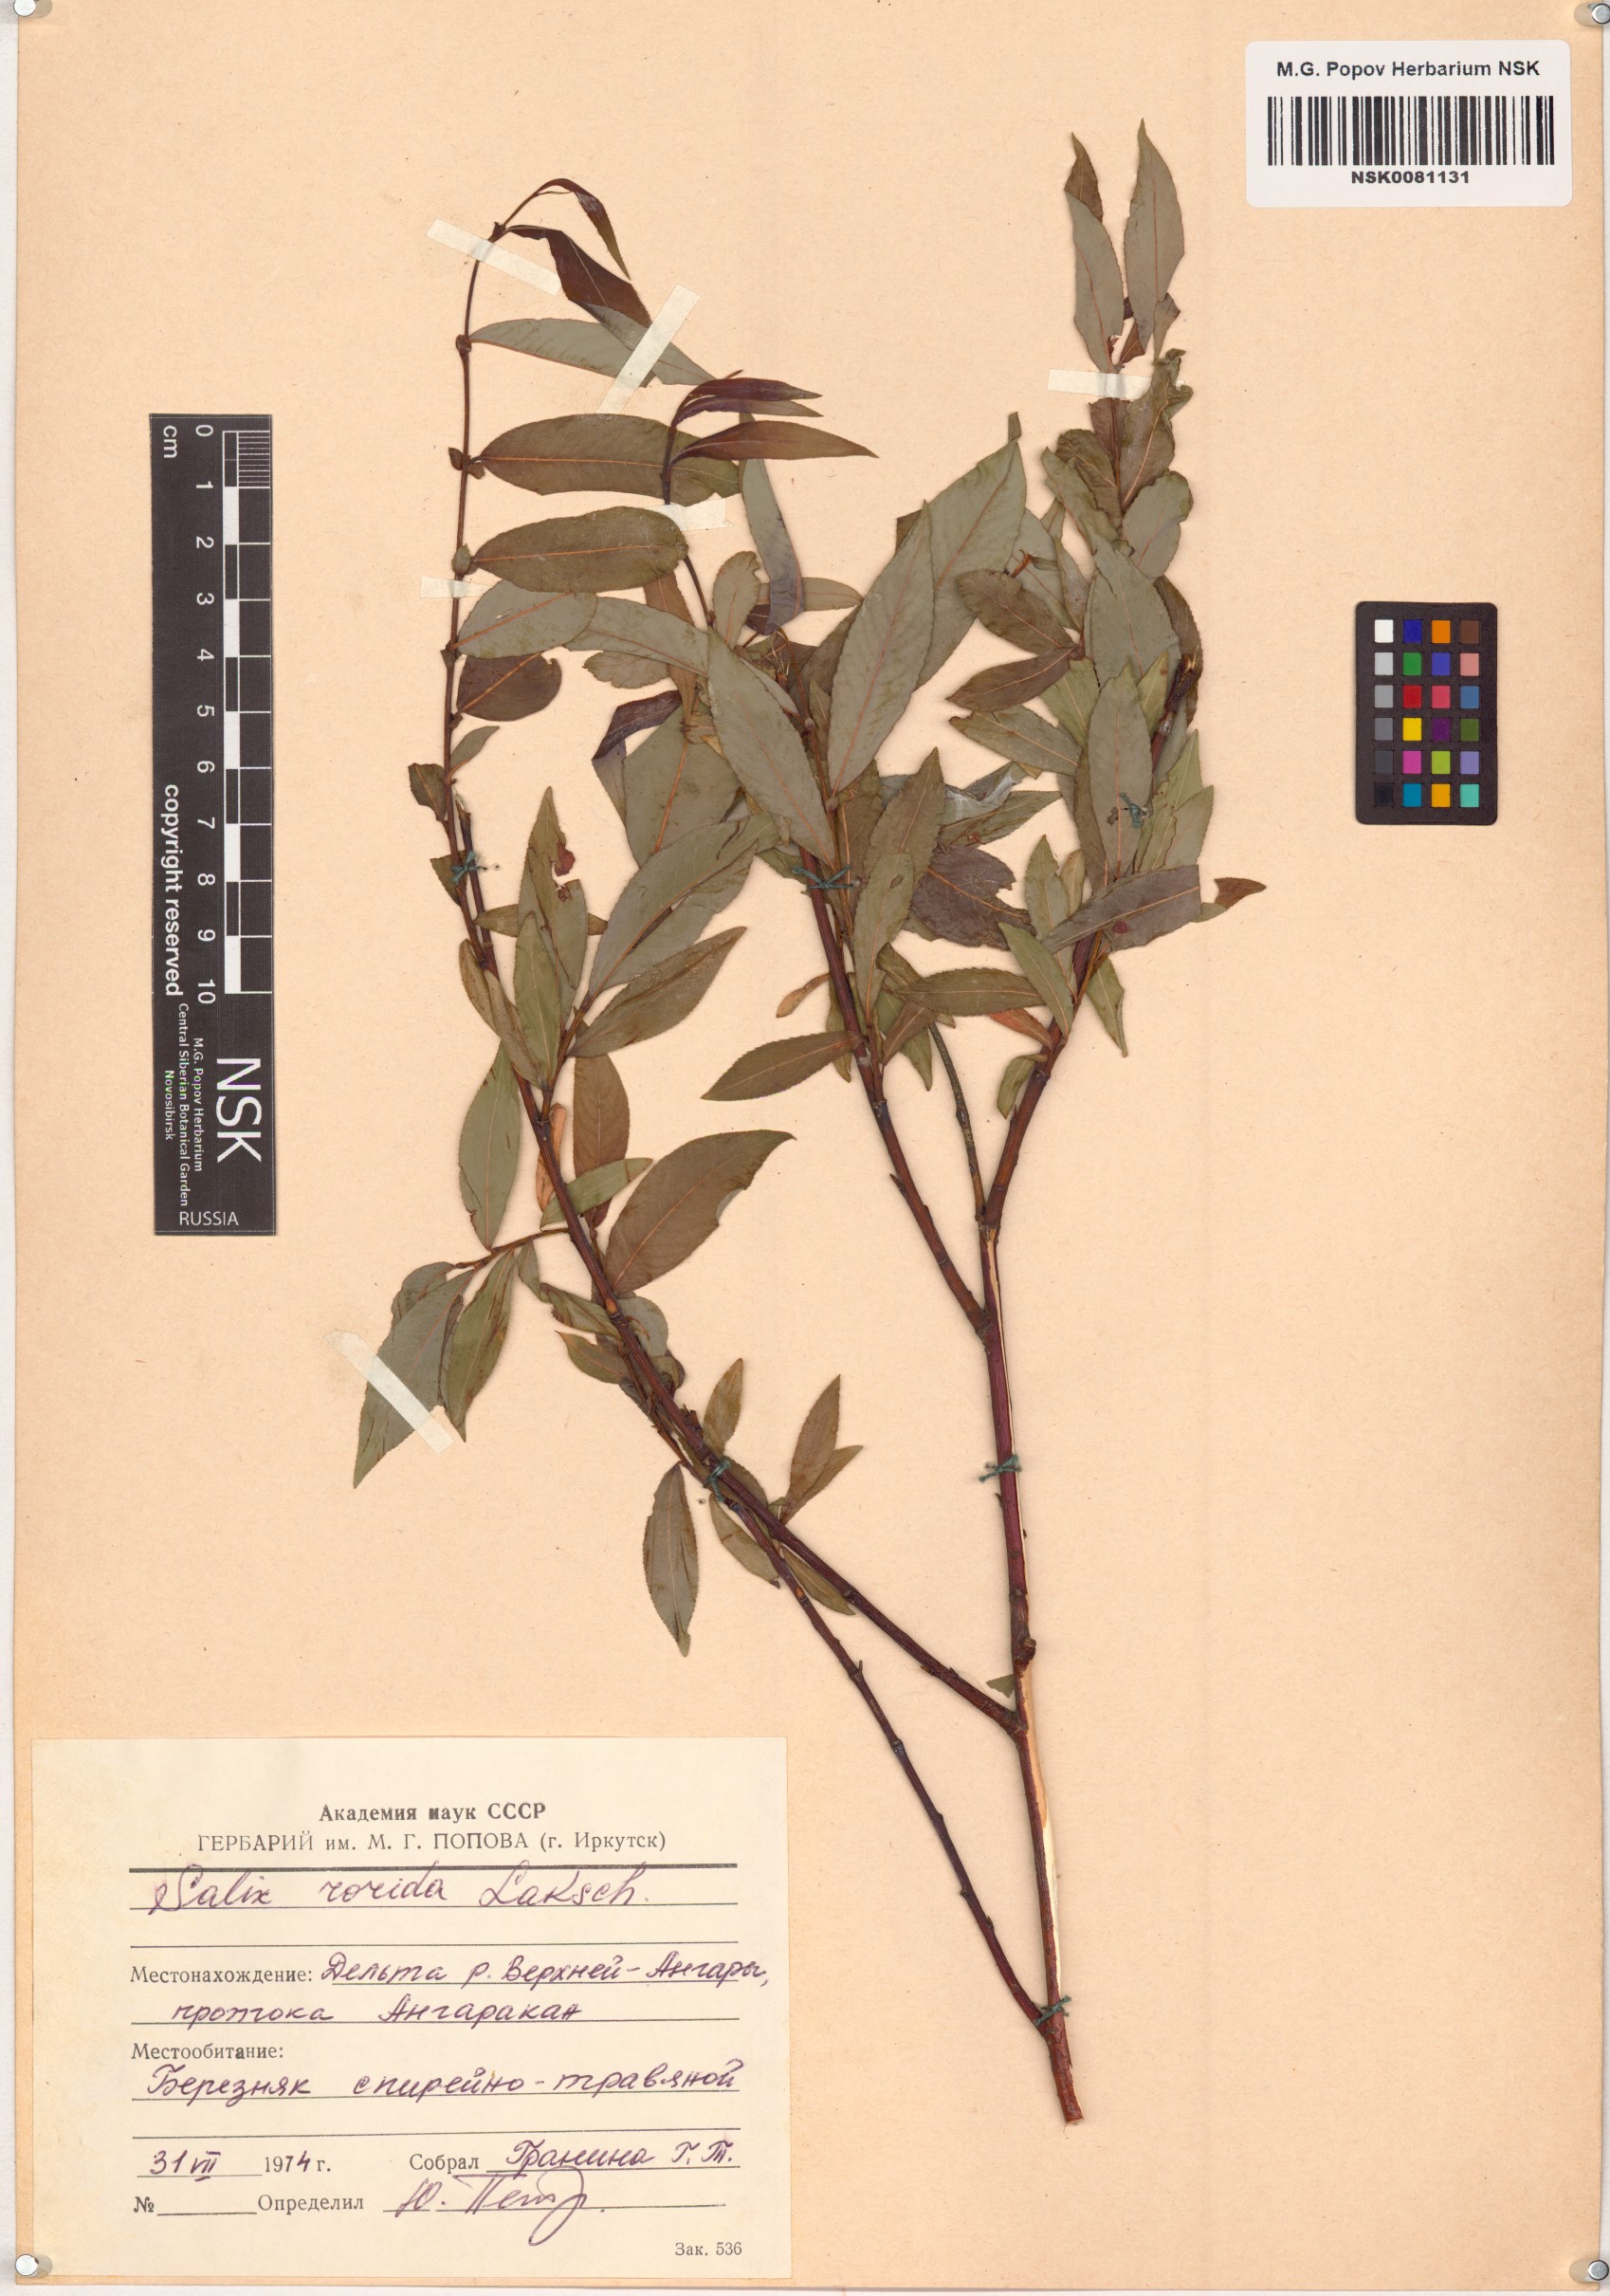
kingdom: Plantae
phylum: Tracheophyta
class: Magnoliopsida
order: Malpighiales
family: Salicaceae
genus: Salix
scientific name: Salix rorida
